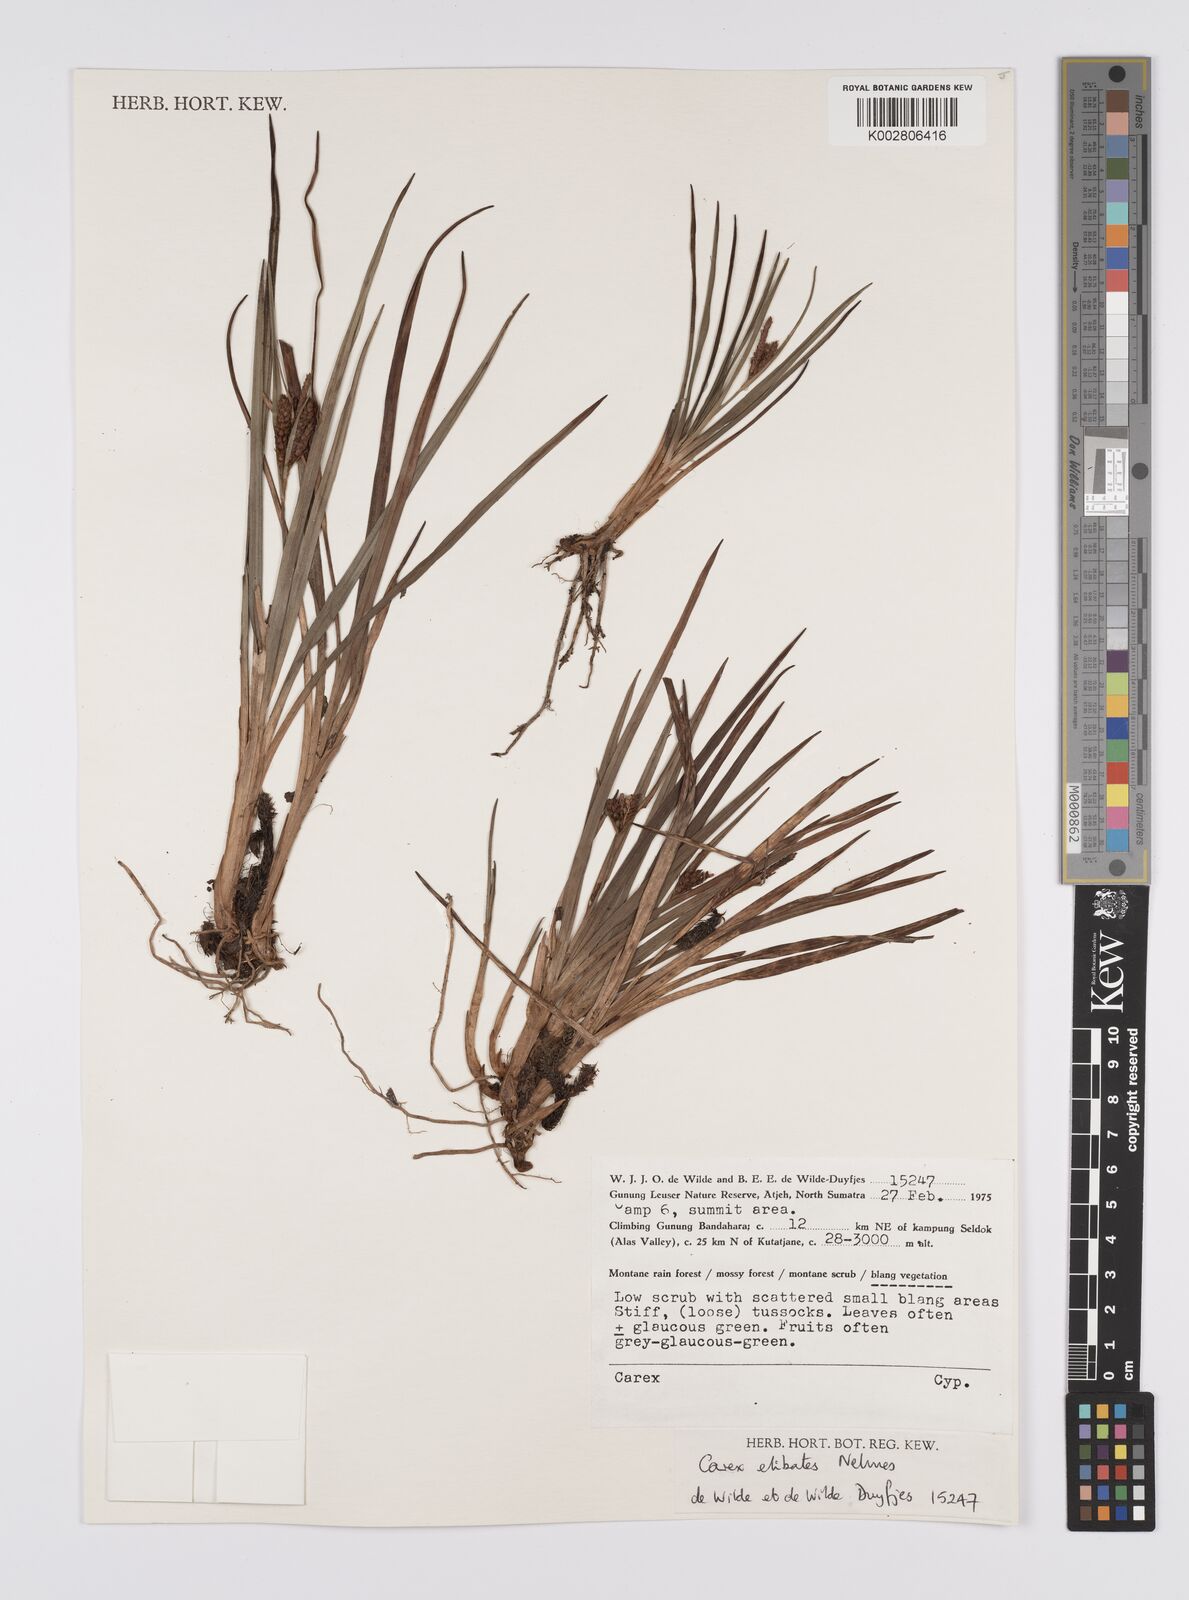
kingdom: Plantae
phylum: Tracheophyta
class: Liliopsida
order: Poales
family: Cyperaceae
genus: Carex
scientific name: Carex maculata
